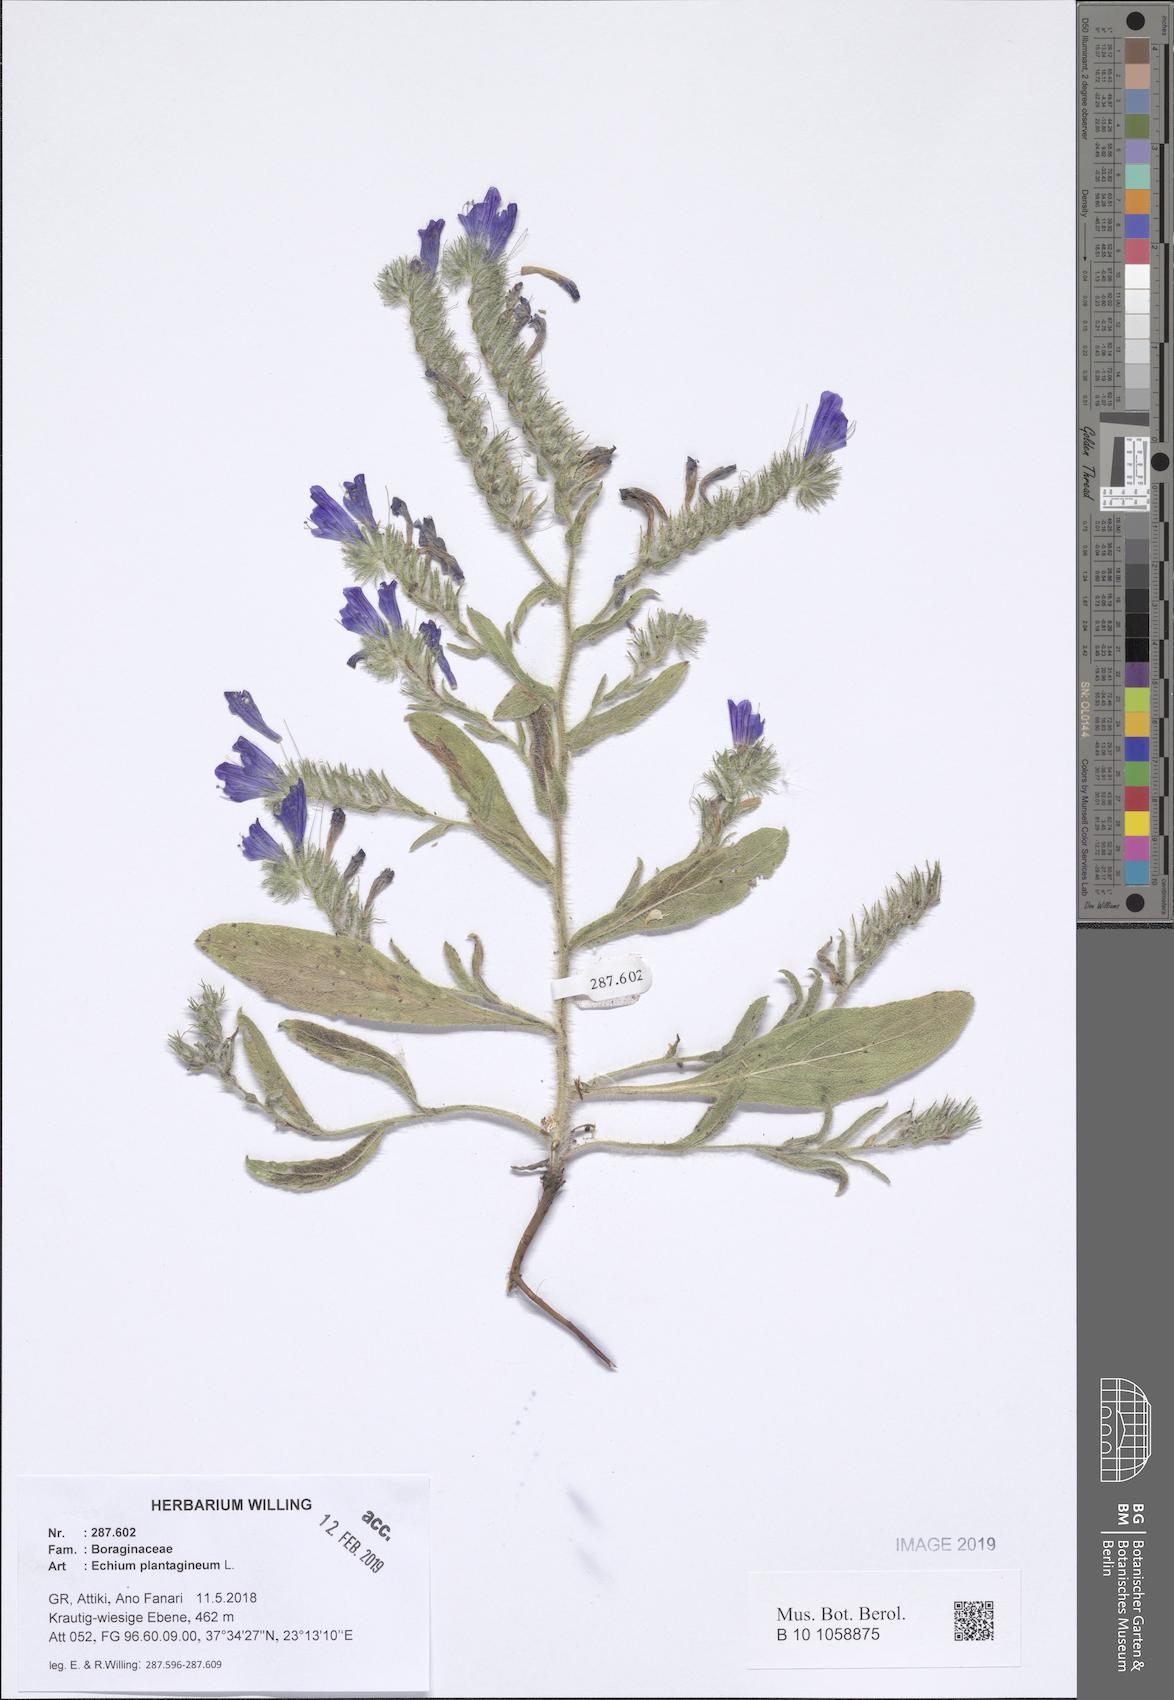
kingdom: Plantae
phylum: Tracheophyta
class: Magnoliopsida
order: Boraginales
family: Boraginaceae
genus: Echium
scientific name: Echium plantagineum
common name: Purple viper's-bugloss
